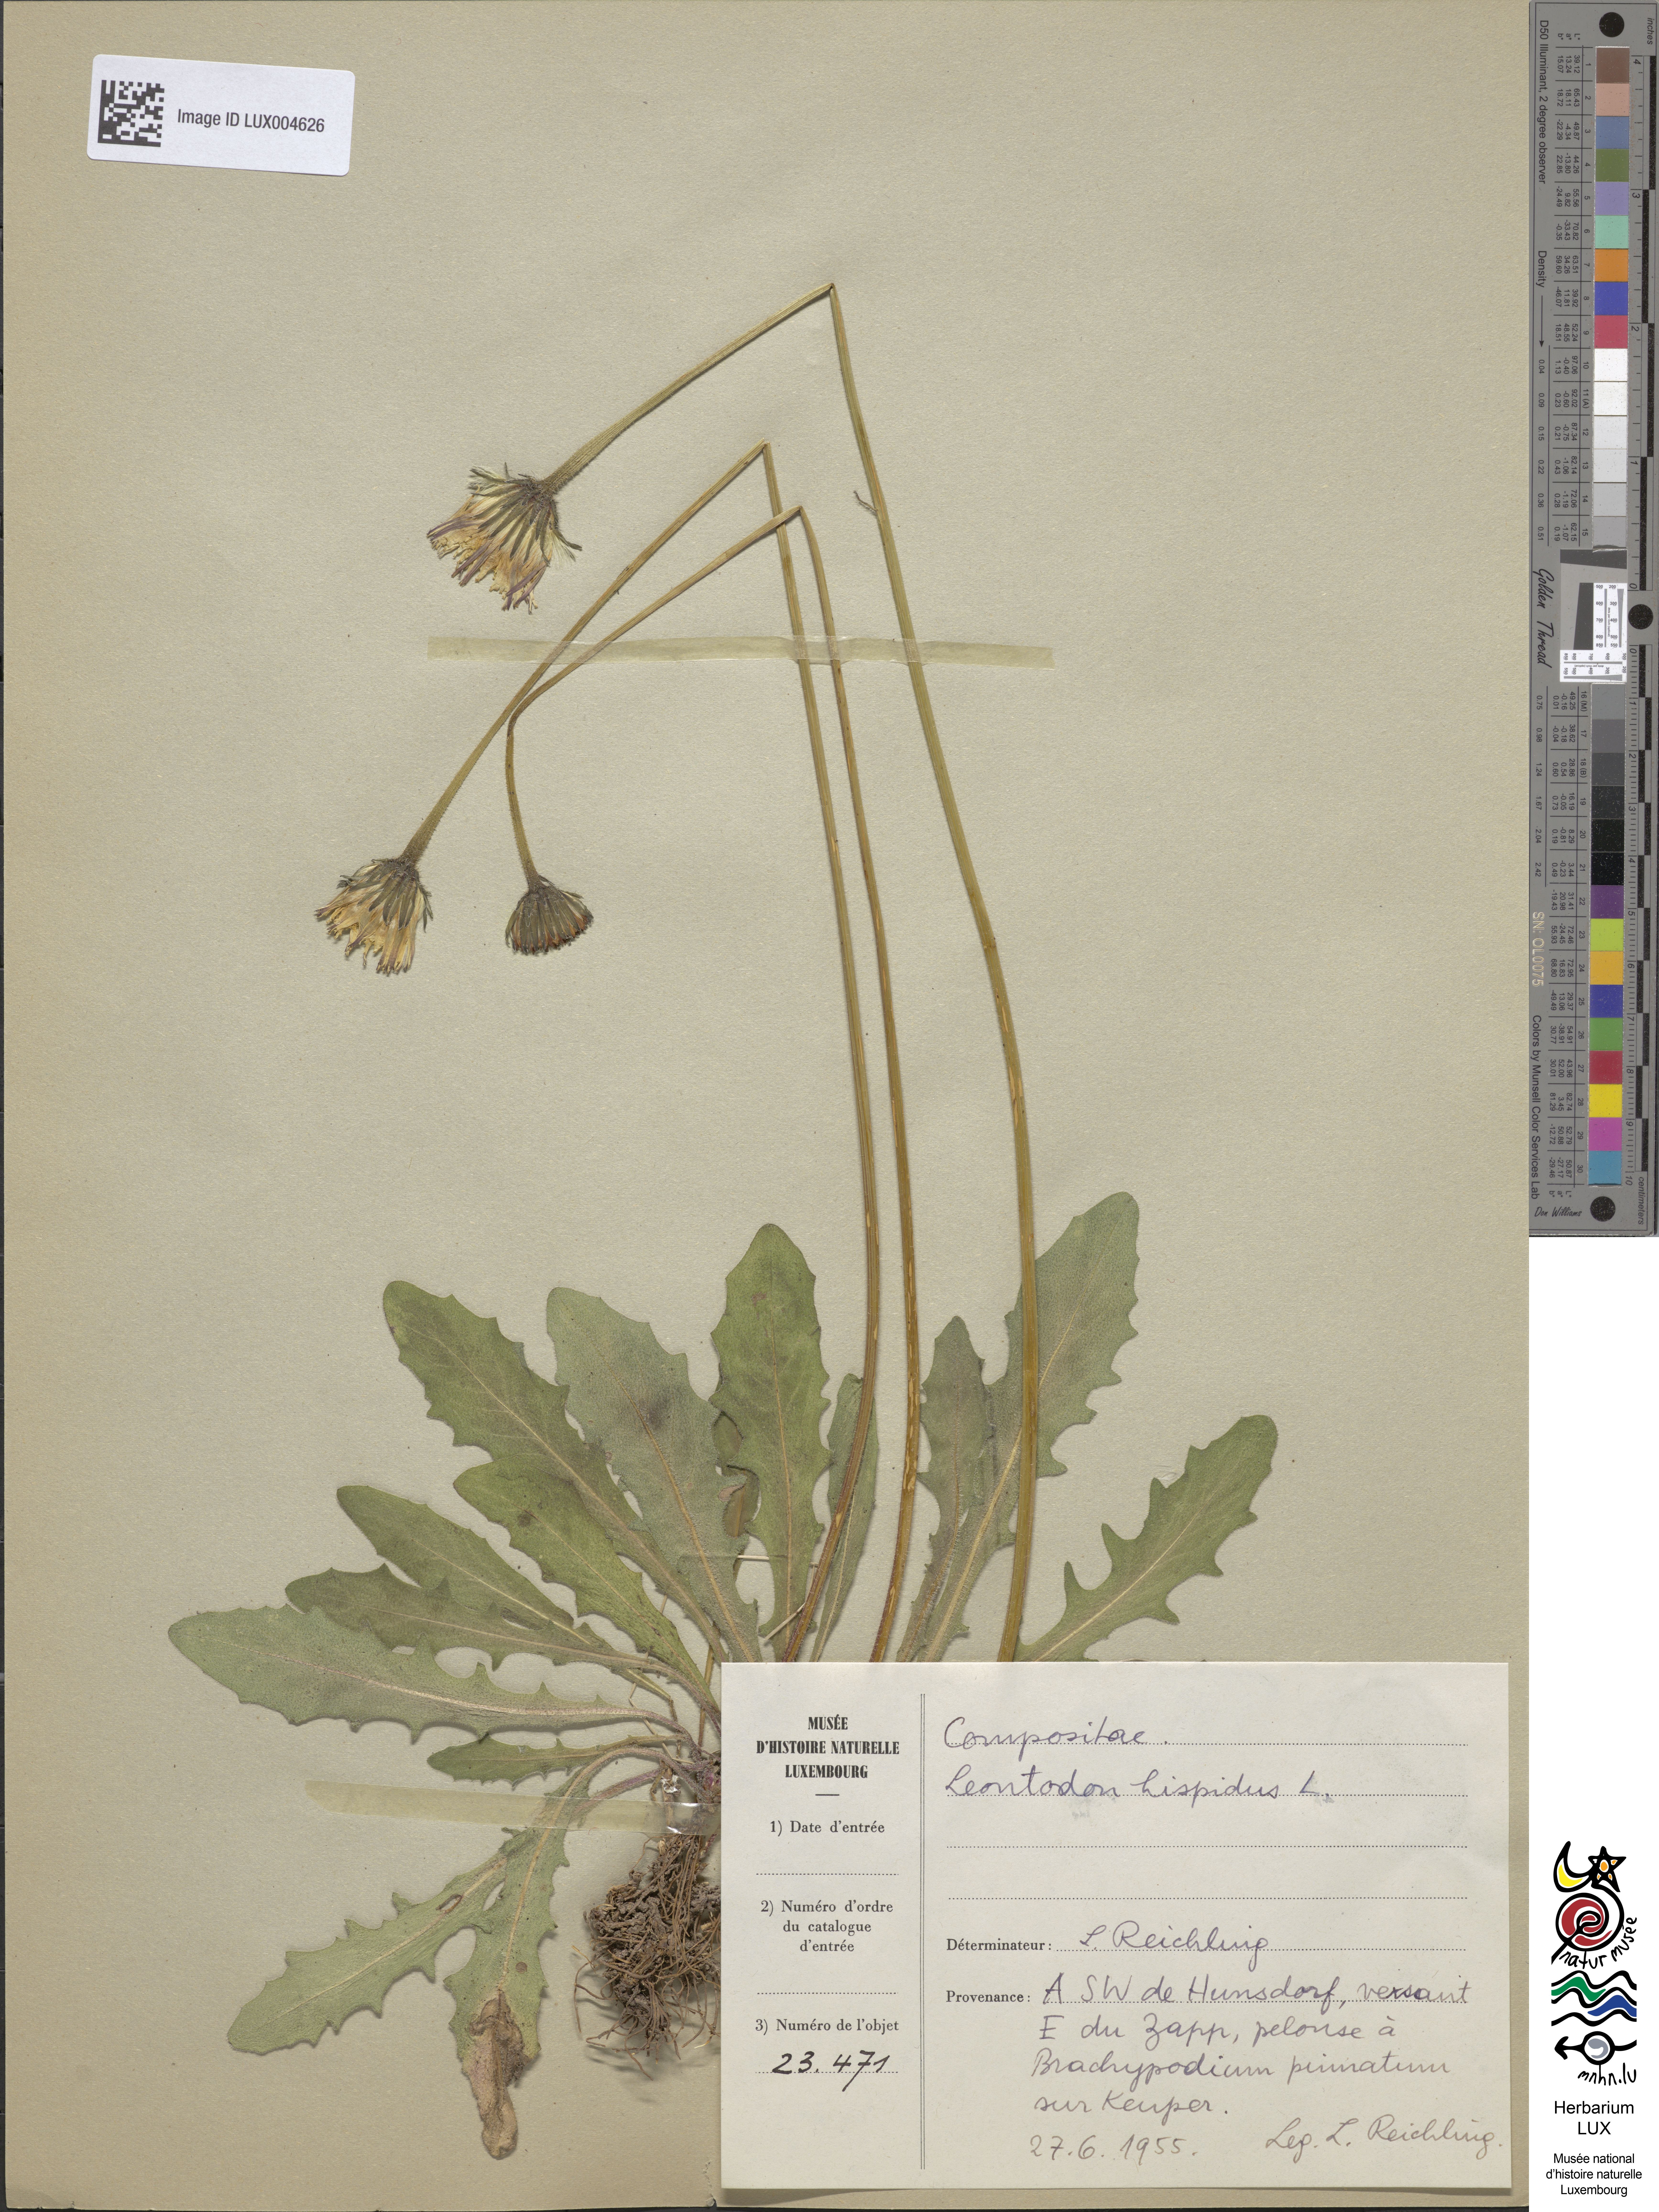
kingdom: Plantae
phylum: Tracheophyta
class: Magnoliopsida
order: Asterales
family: Asteraceae
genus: Leontodon
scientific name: Leontodon hispidus
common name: Rough hawkbit
